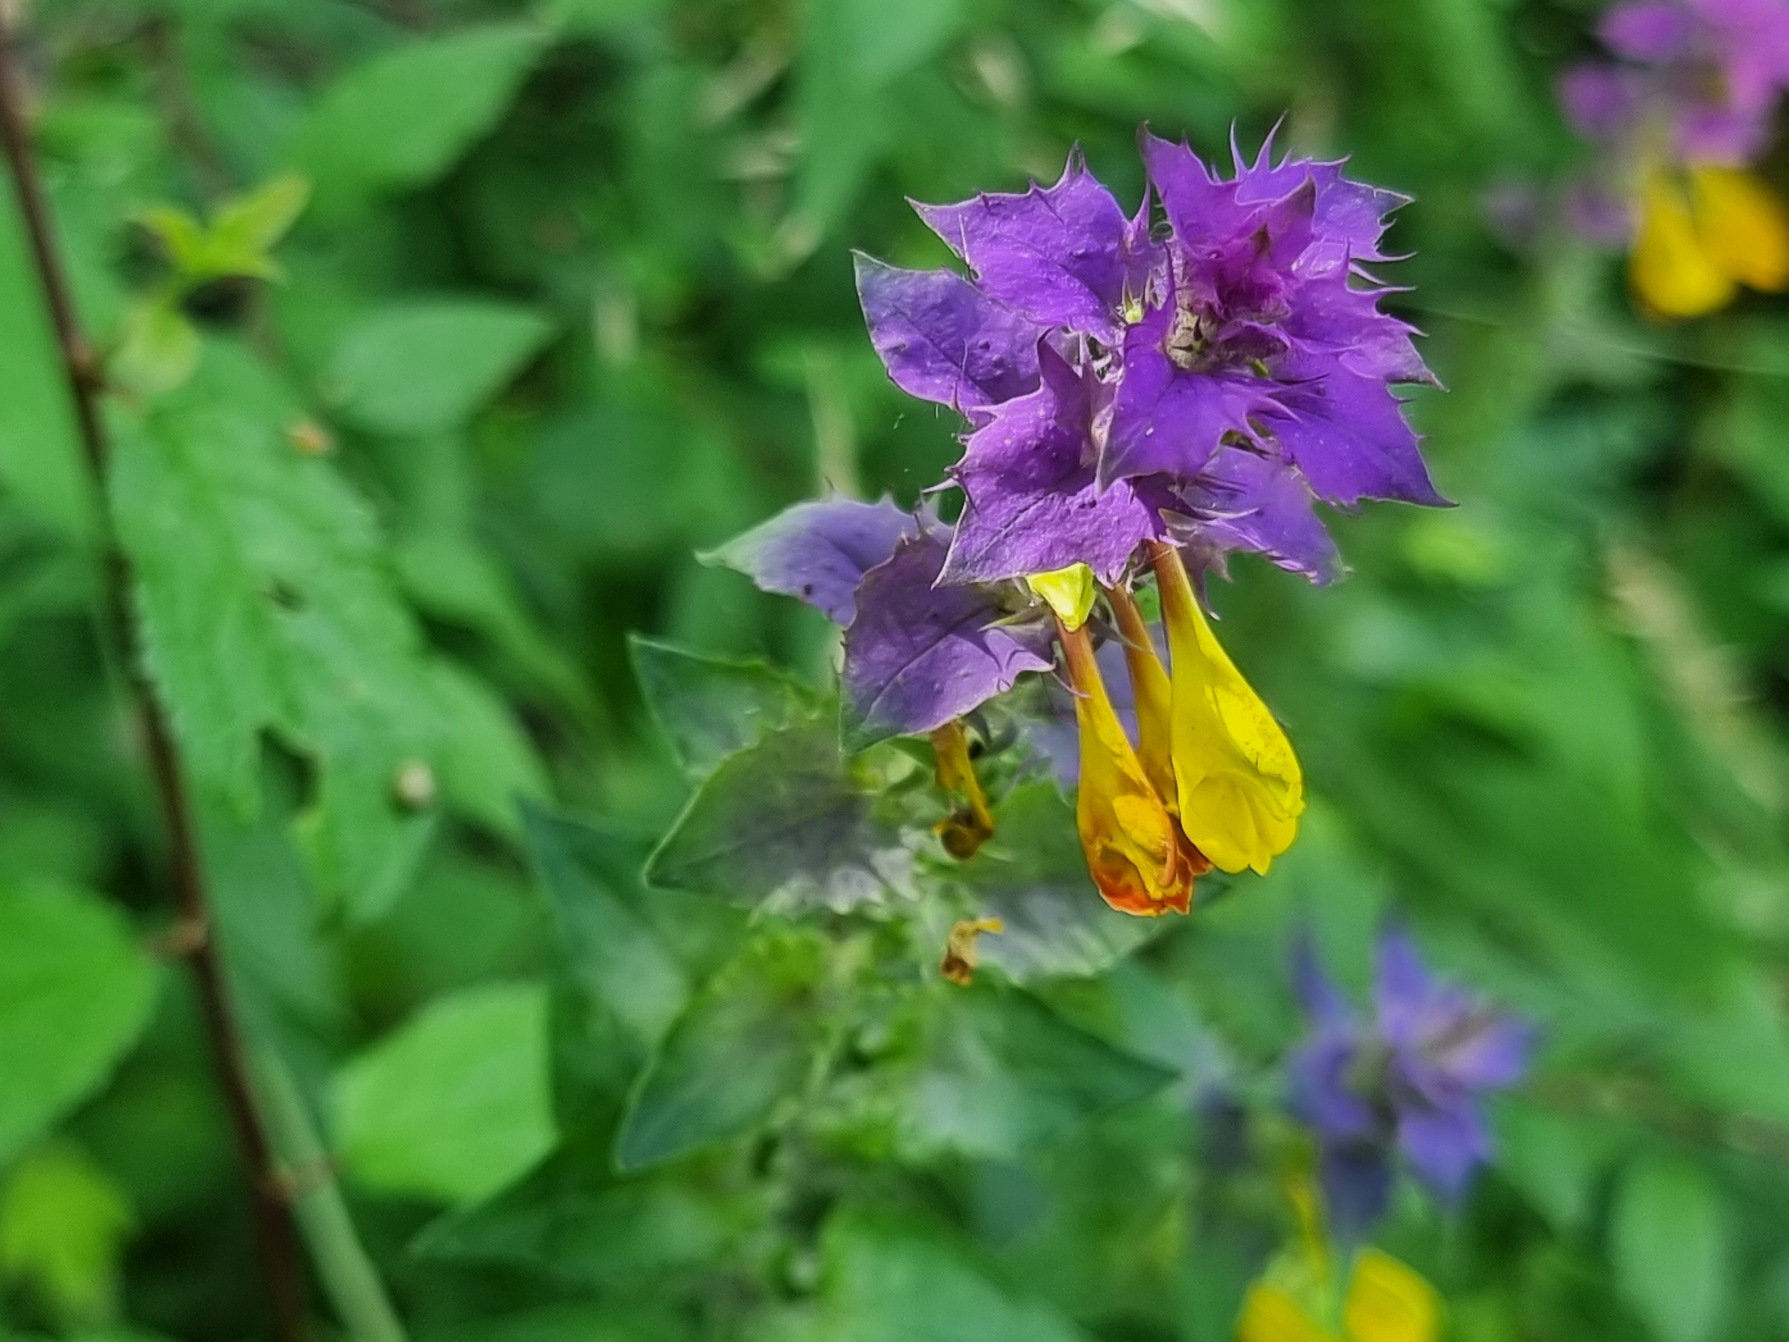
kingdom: Plantae
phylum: Tracheophyta
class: Magnoliopsida
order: Lamiales
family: Orobanchaceae
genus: Melampyrum
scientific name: Melampyrum nemorosum
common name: Blåtoppet kohvede
